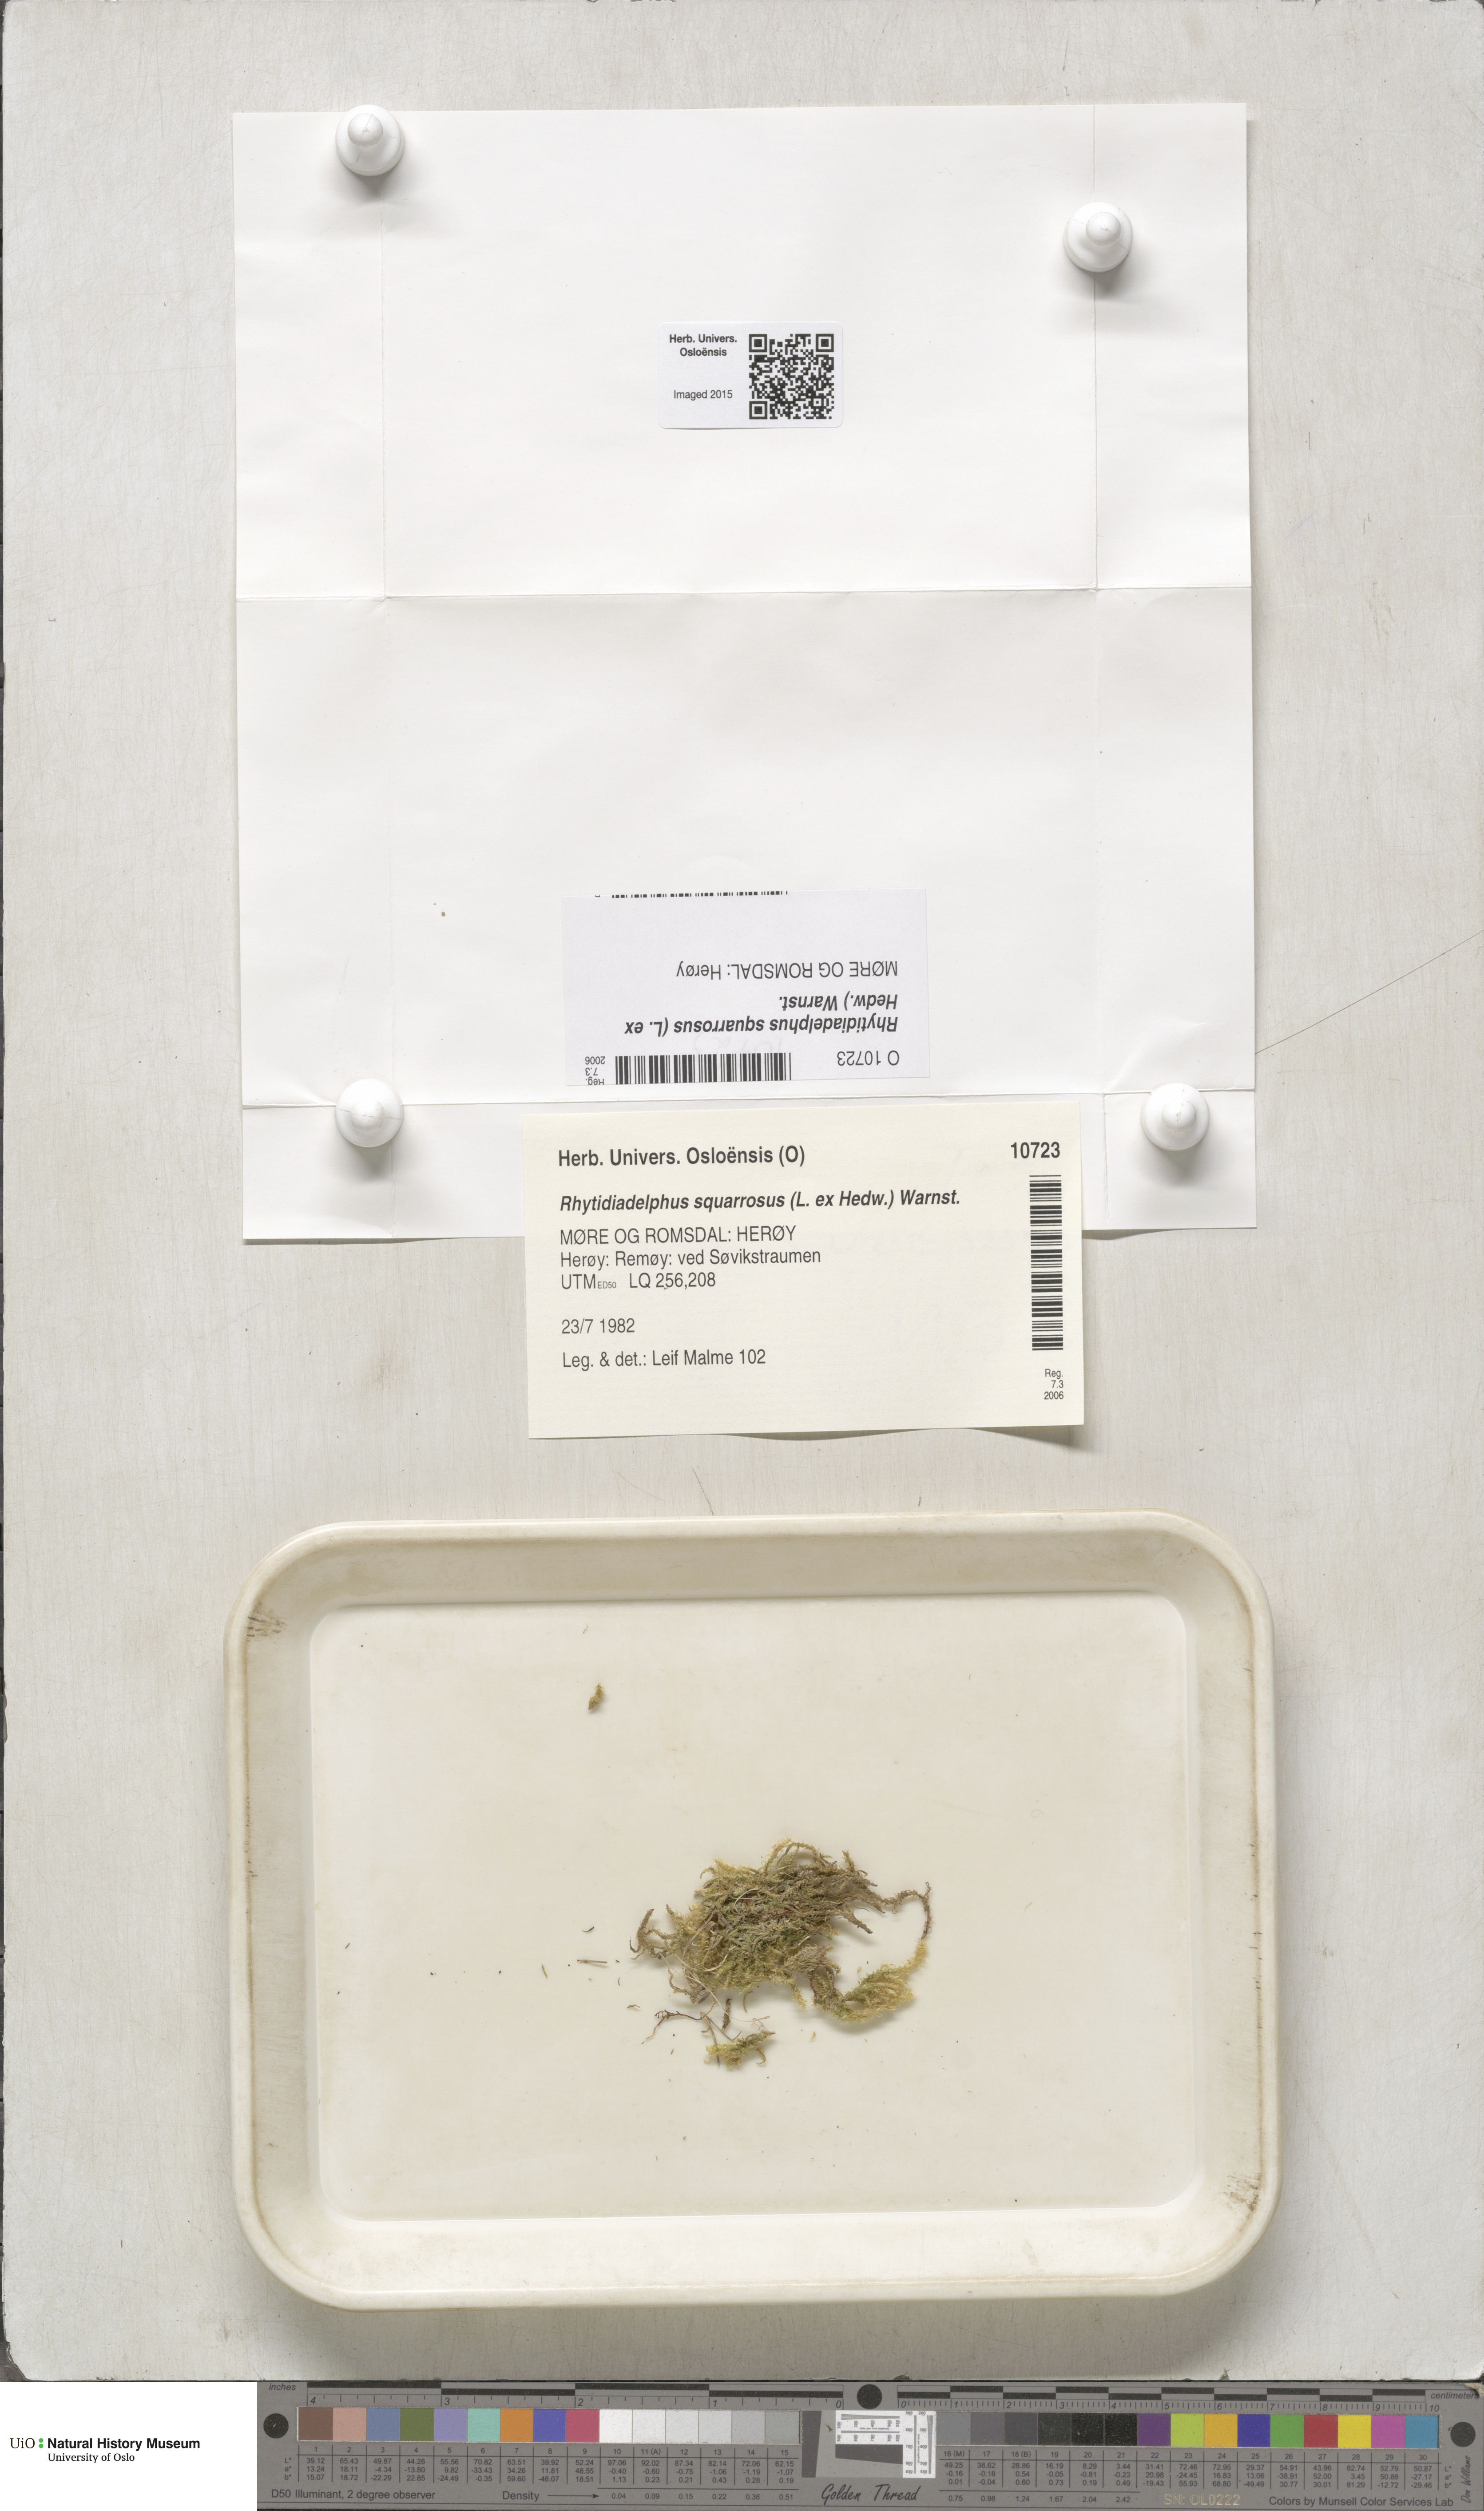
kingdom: Plantae
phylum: Bryophyta
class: Bryopsida
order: Hypnales
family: Hylocomiaceae
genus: Rhytidiadelphus
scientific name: Rhytidiadelphus squarrosus
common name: Springy turf-moss
